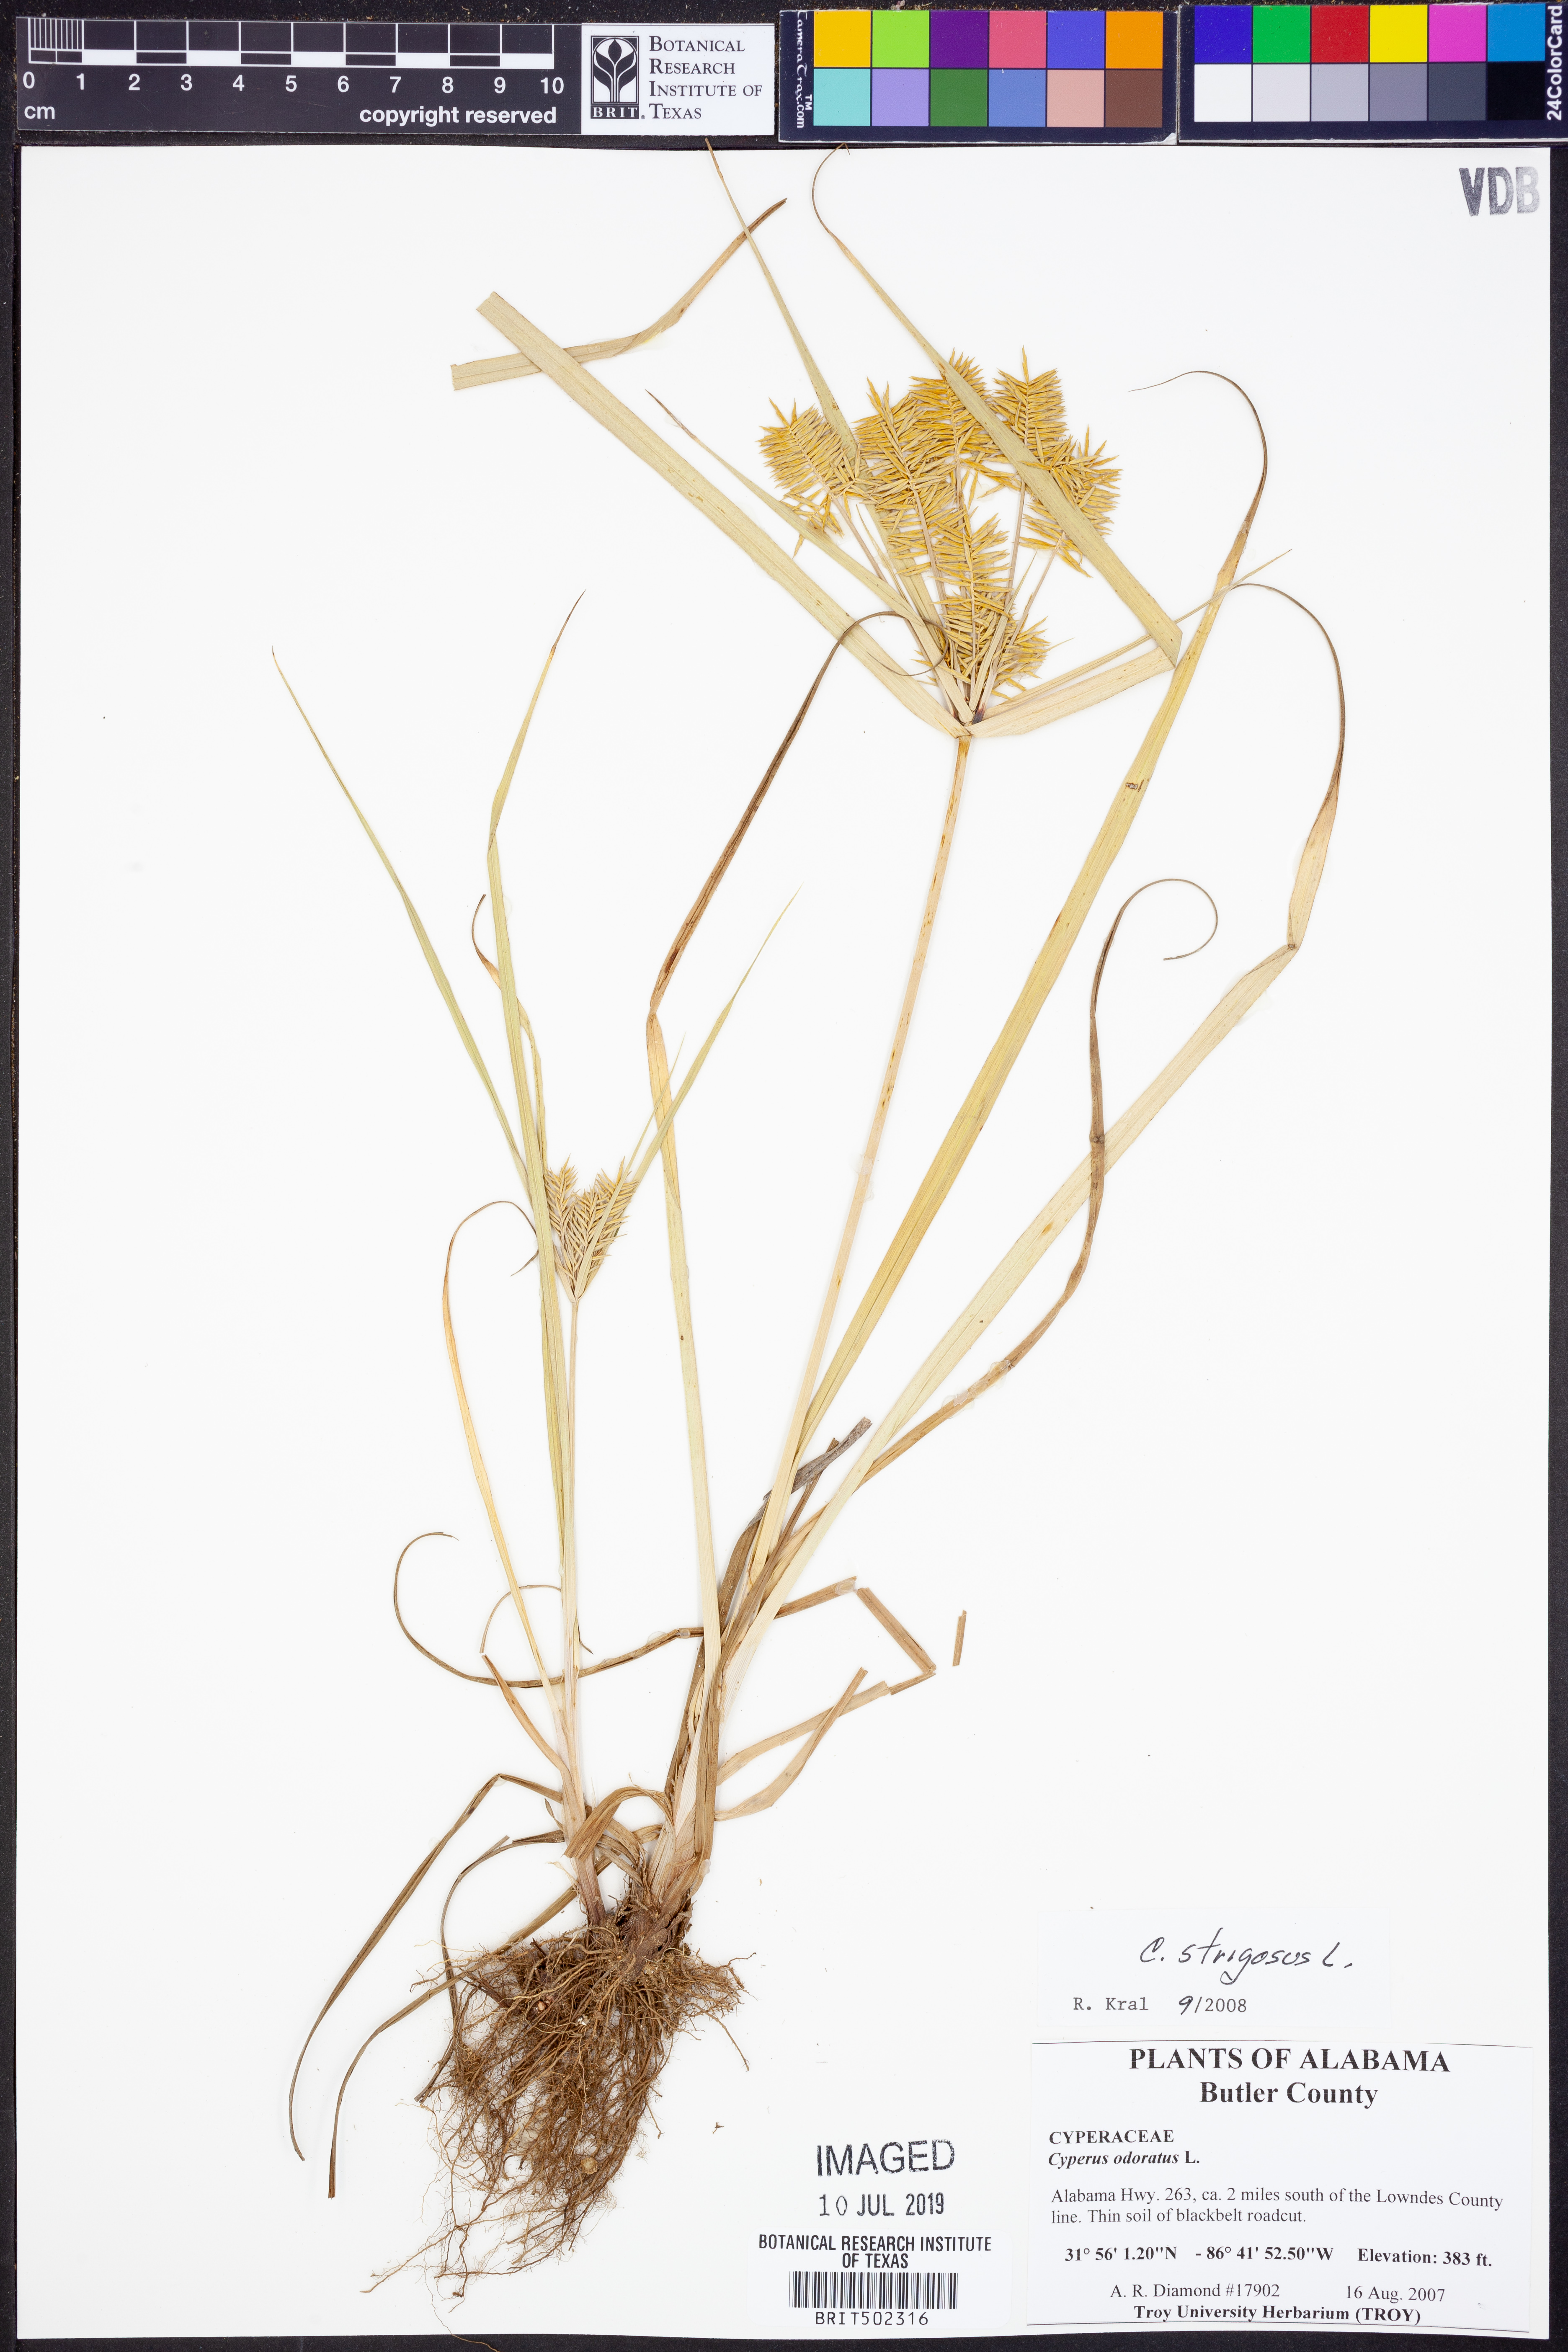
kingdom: Plantae
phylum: Tracheophyta
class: Liliopsida
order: Poales
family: Cyperaceae
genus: Cyperus
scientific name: Cyperus strigosus
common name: False nutsedge
